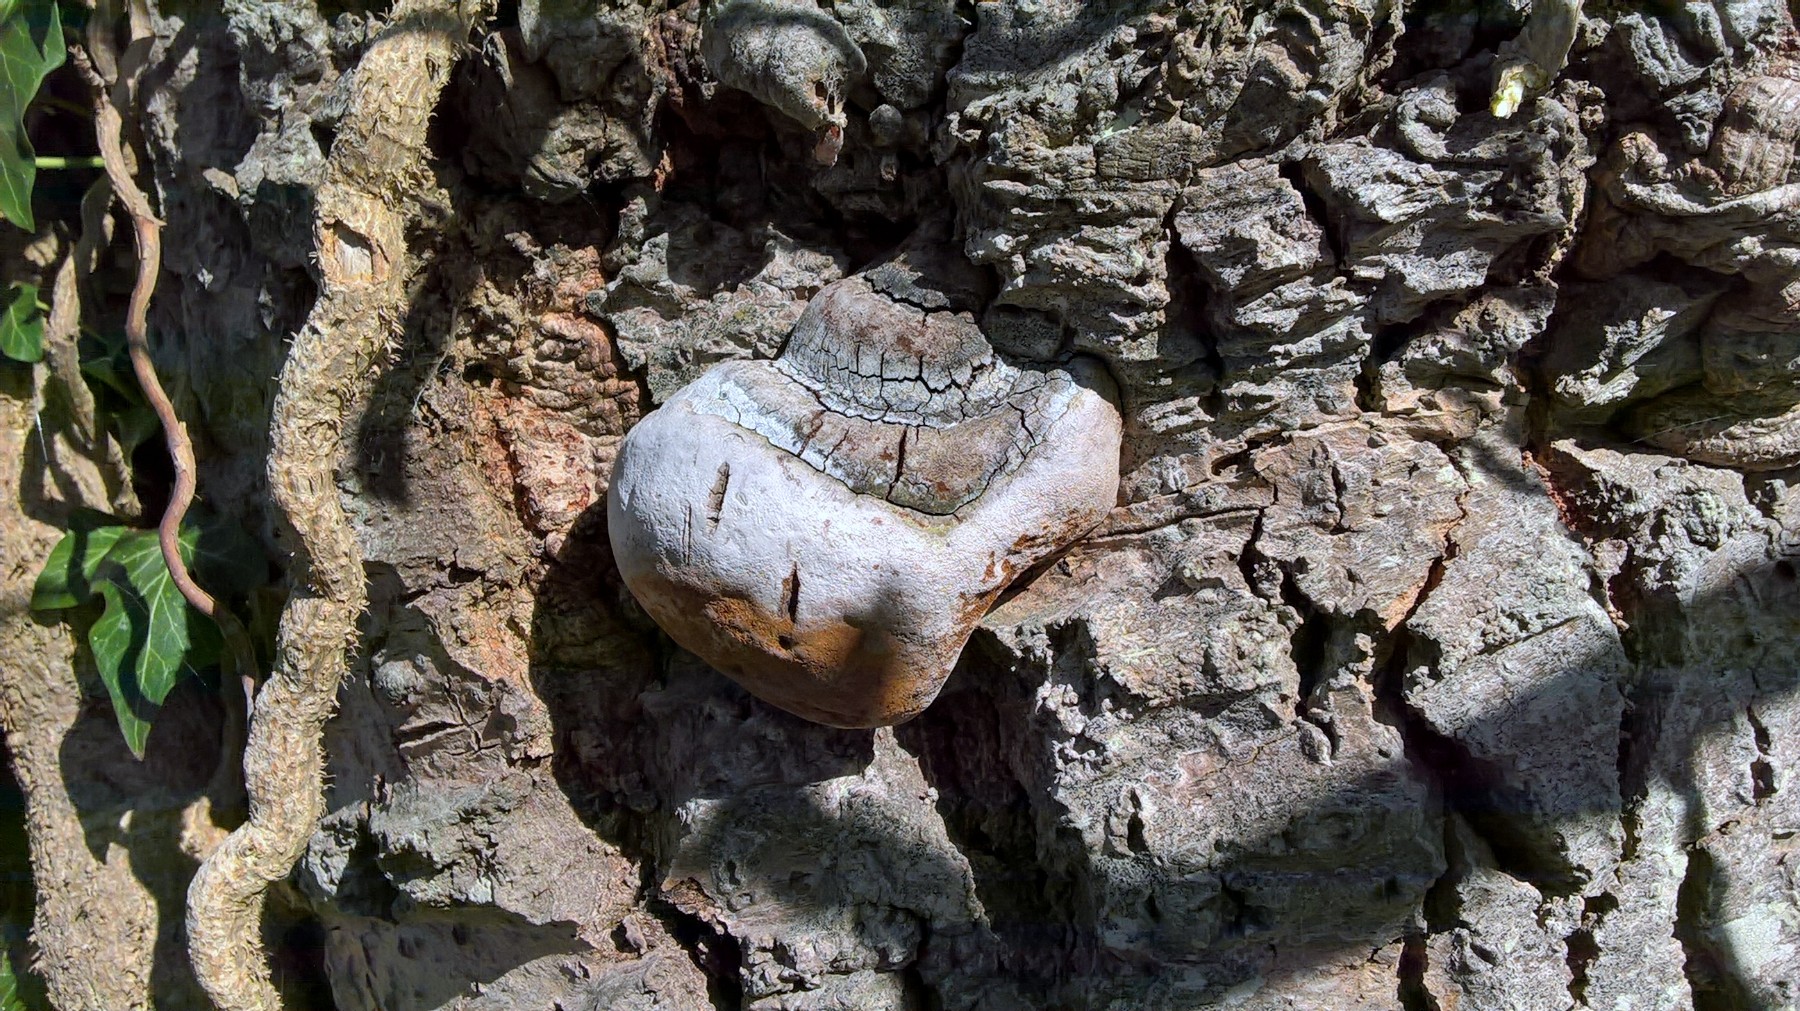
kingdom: Fungi
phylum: Basidiomycota
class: Agaricomycetes
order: Hymenochaetales
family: Hymenochaetaceae
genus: Phellinus
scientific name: Phellinus populicola
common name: poppel-ildporesvamp
